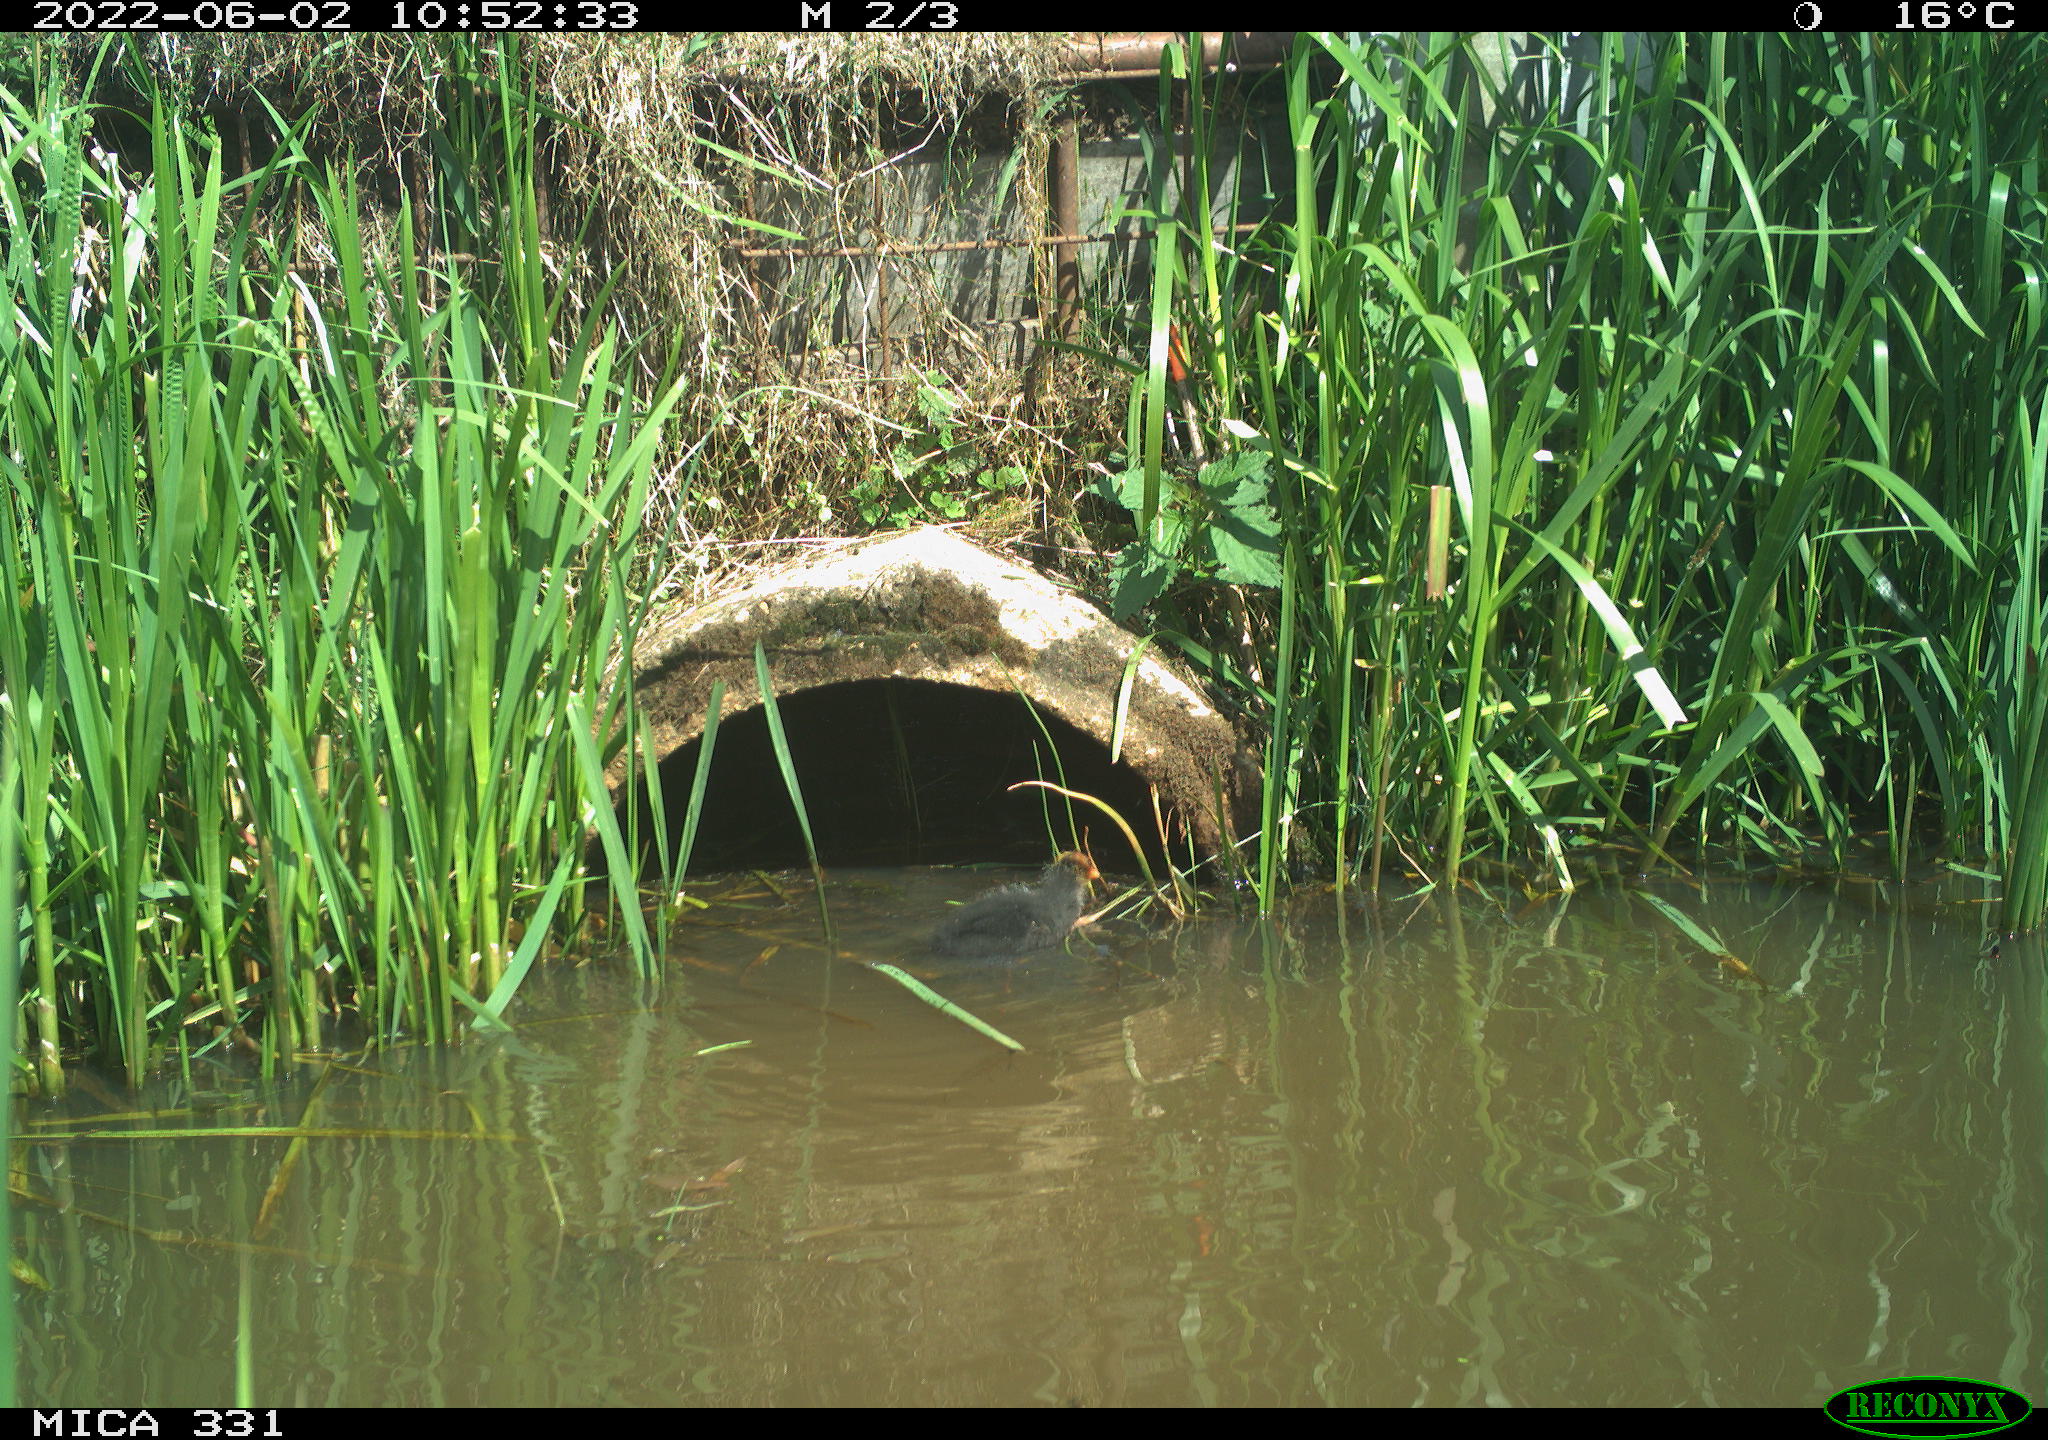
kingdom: Animalia
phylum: Chordata
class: Aves
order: Gruiformes
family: Rallidae
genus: Fulica
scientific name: Fulica atra
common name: Eurasian coot
